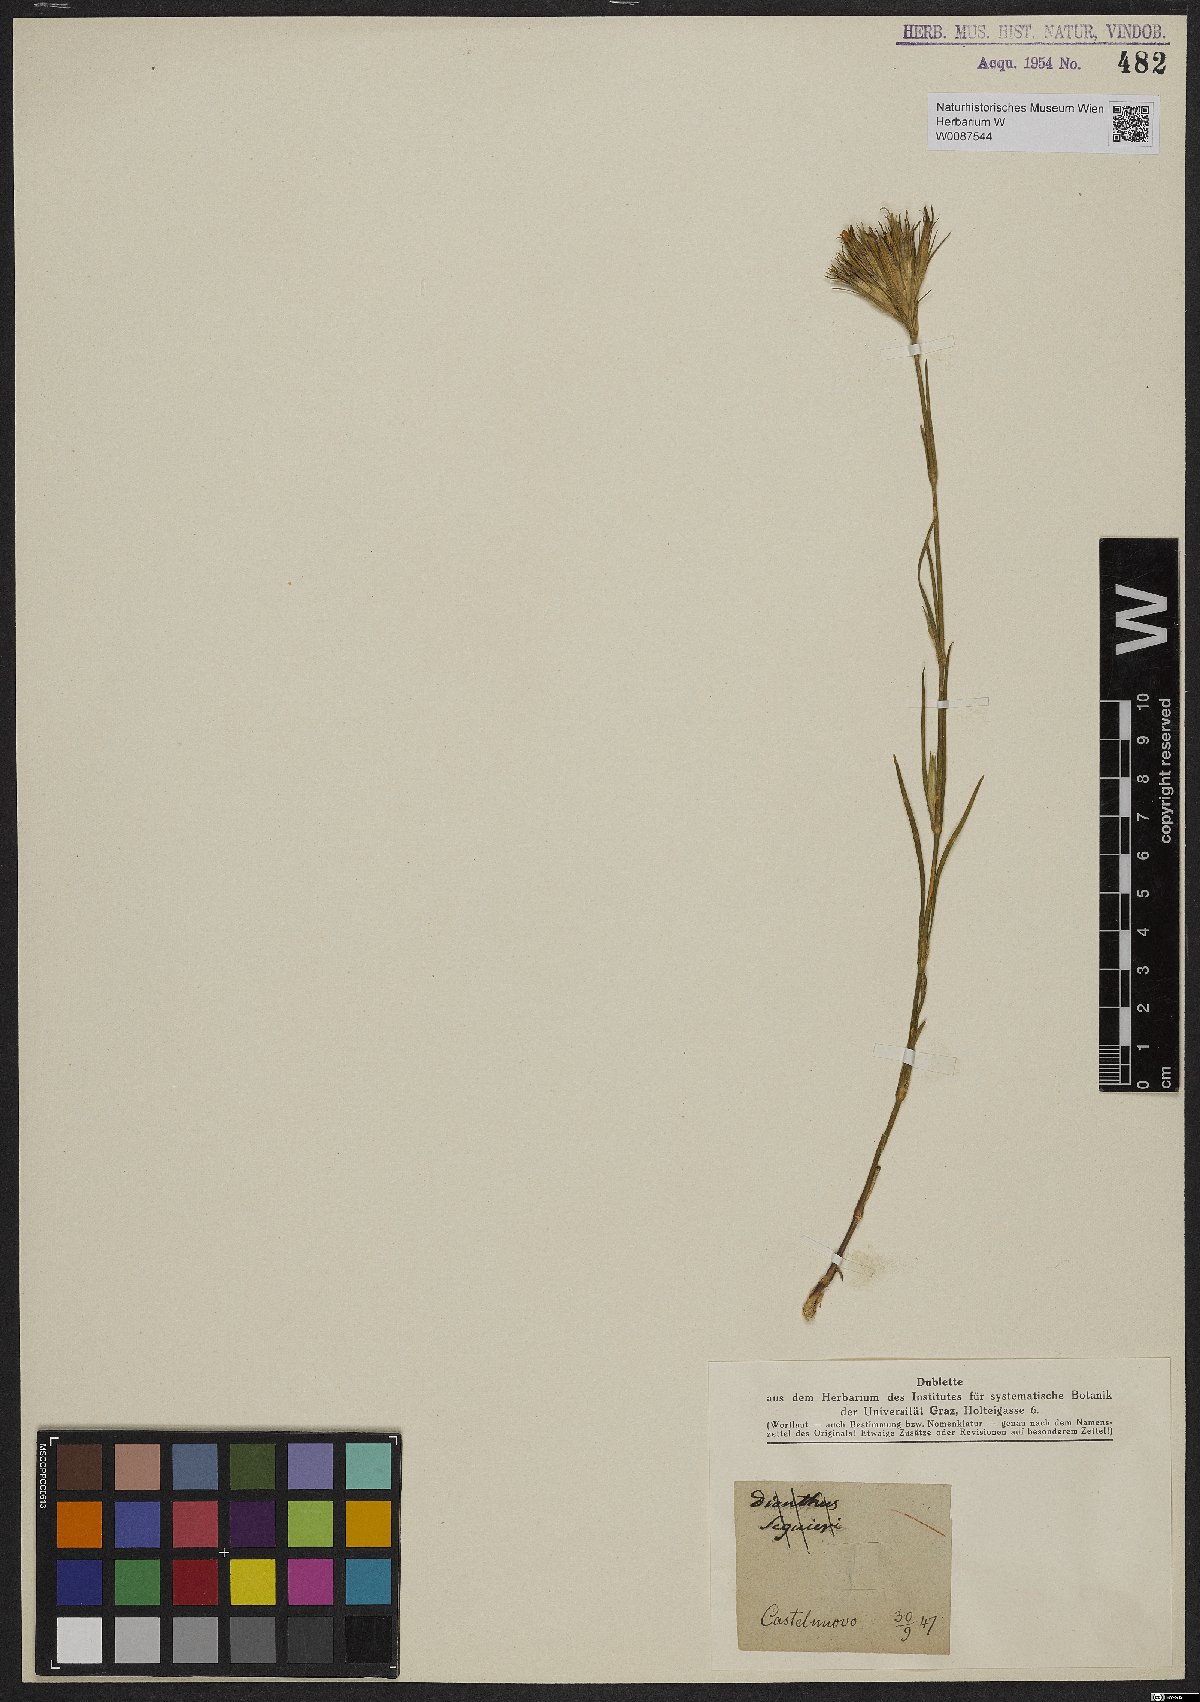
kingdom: Plantae
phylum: Tracheophyta
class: Magnoliopsida
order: Caryophyllales
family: Caryophyllaceae
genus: Dianthus
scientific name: Dianthus
